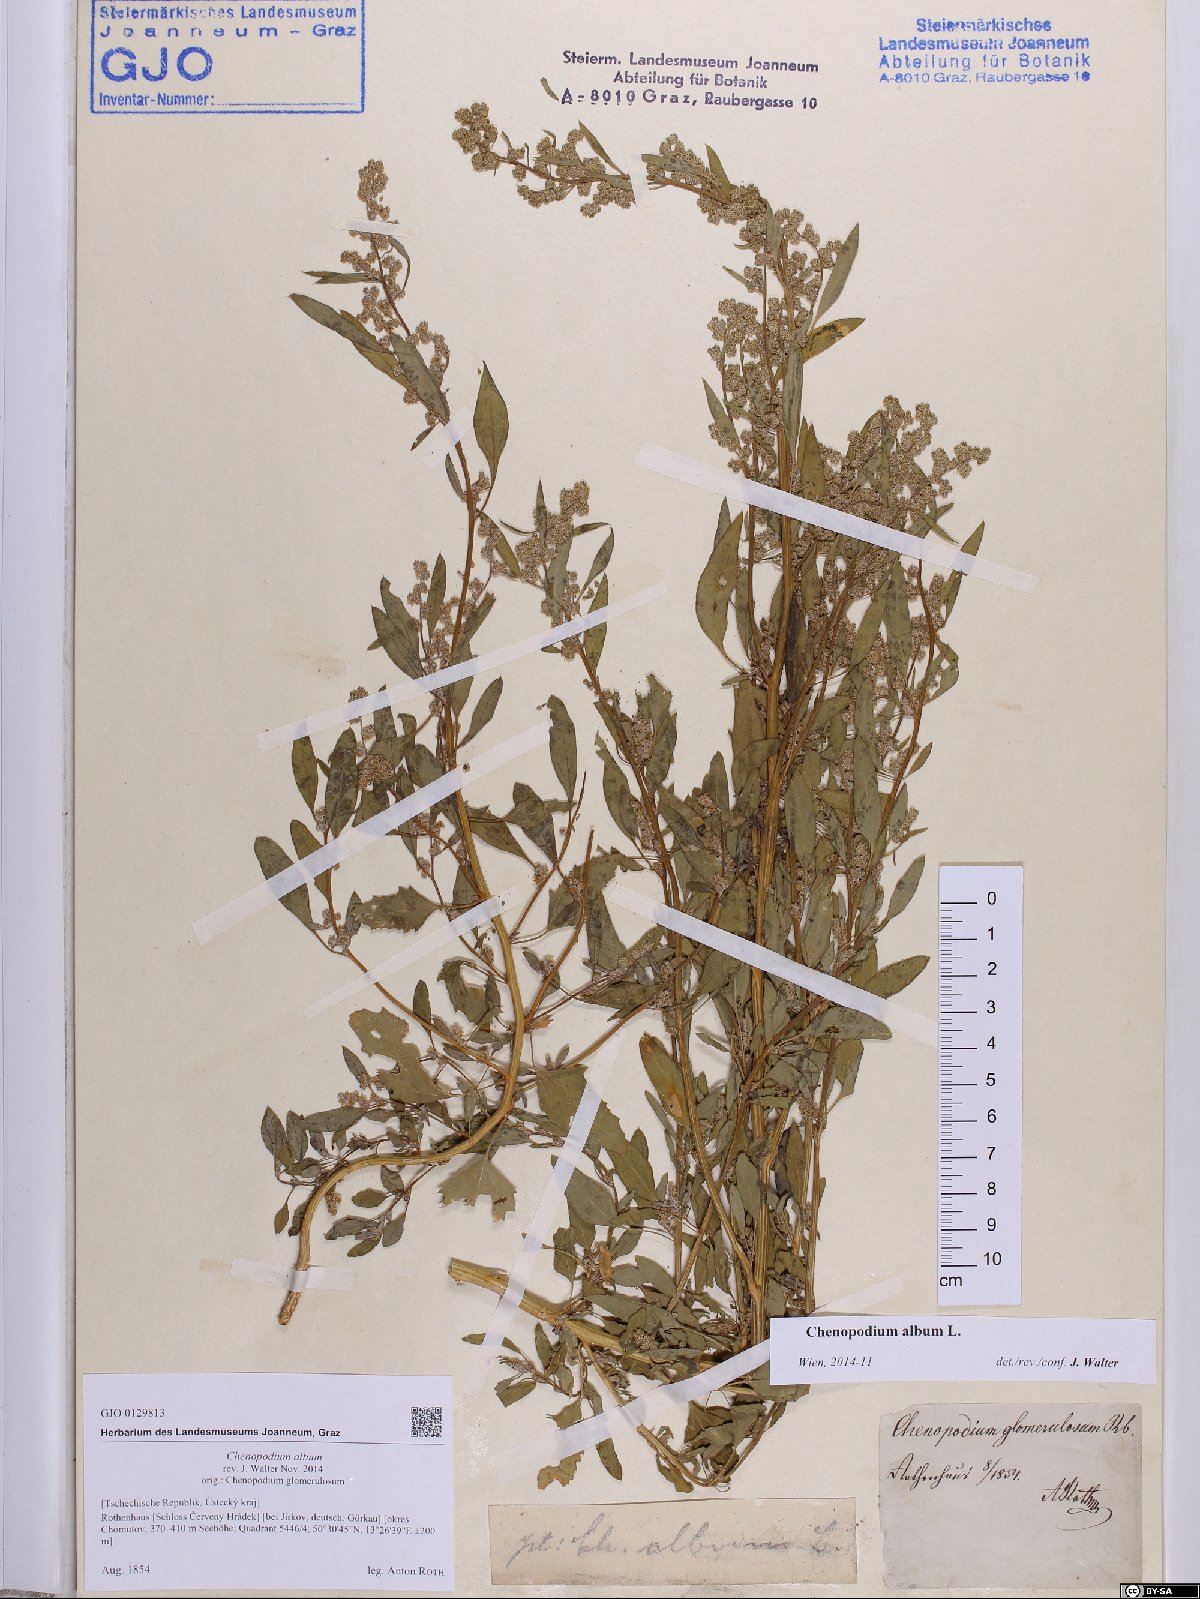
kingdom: Plantae
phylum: Tracheophyta
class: Magnoliopsida
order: Caryophyllales
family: Amaranthaceae
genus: Chenopodium
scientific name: Chenopodium album
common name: Fat-hen
